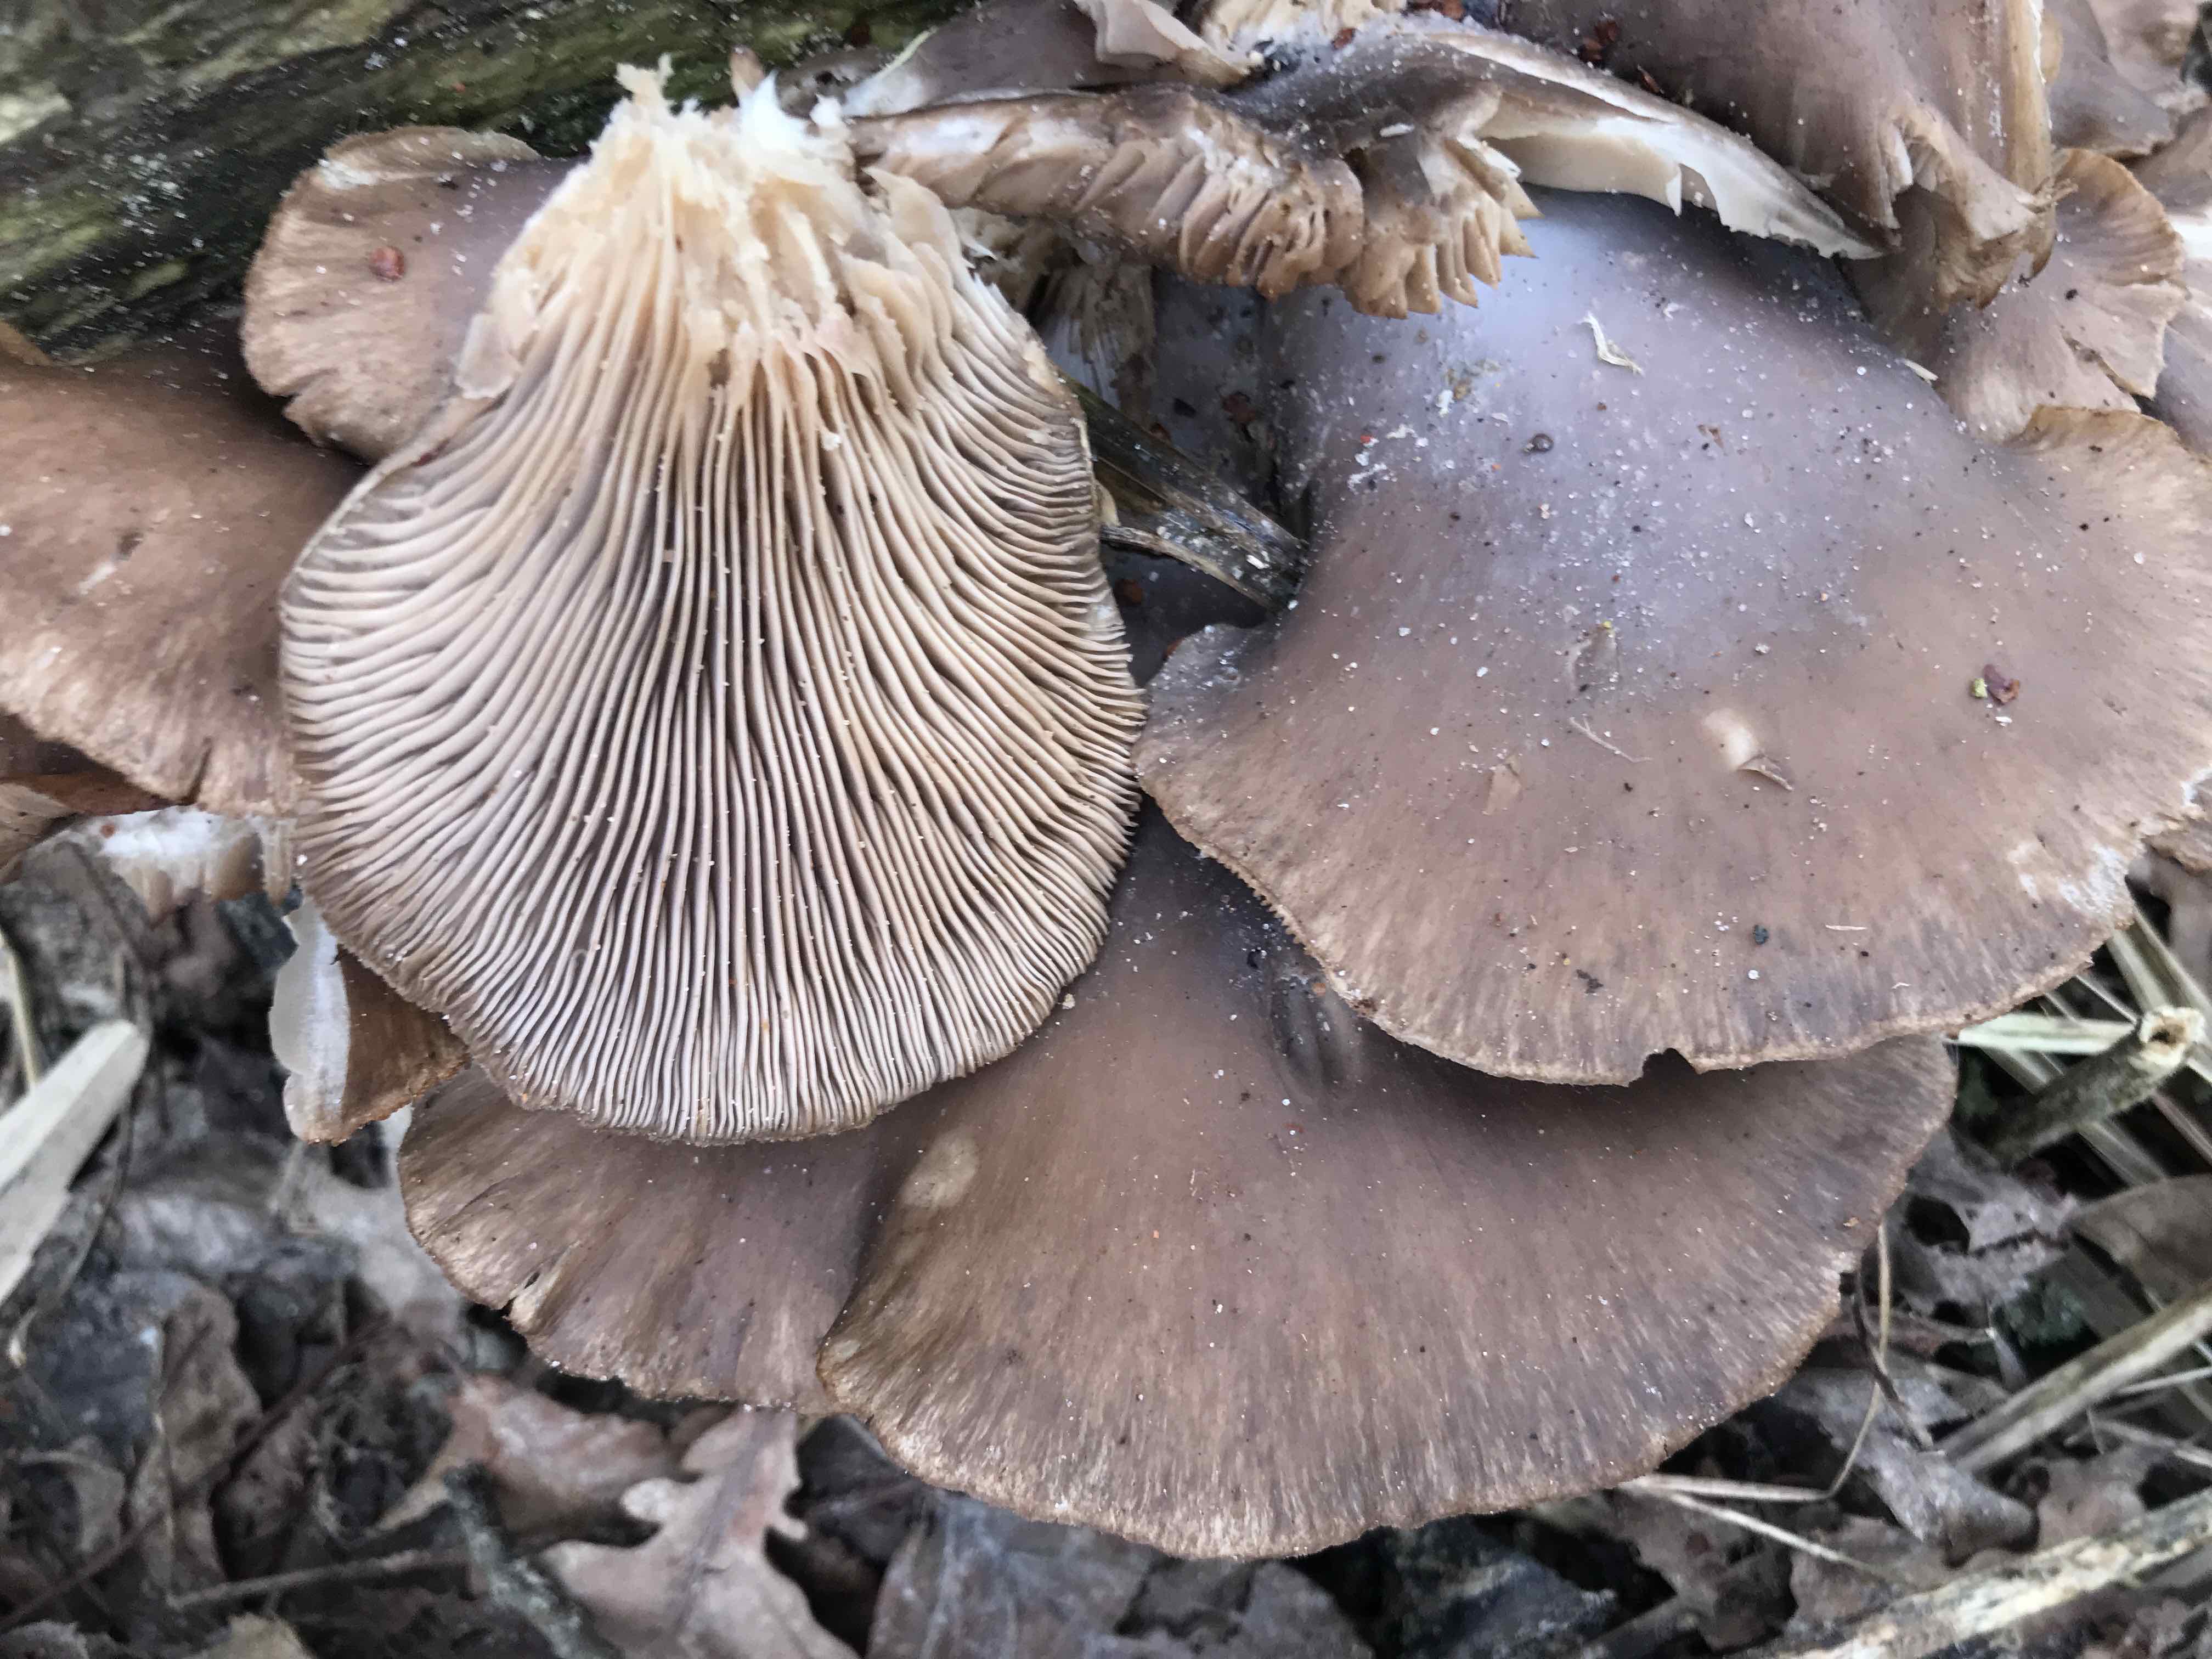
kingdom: Fungi
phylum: Basidiomycota
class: Agaricomycetes
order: Agaricales
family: Pleurotaceae
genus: Pleurotus
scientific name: Pleurotus ostreatus
